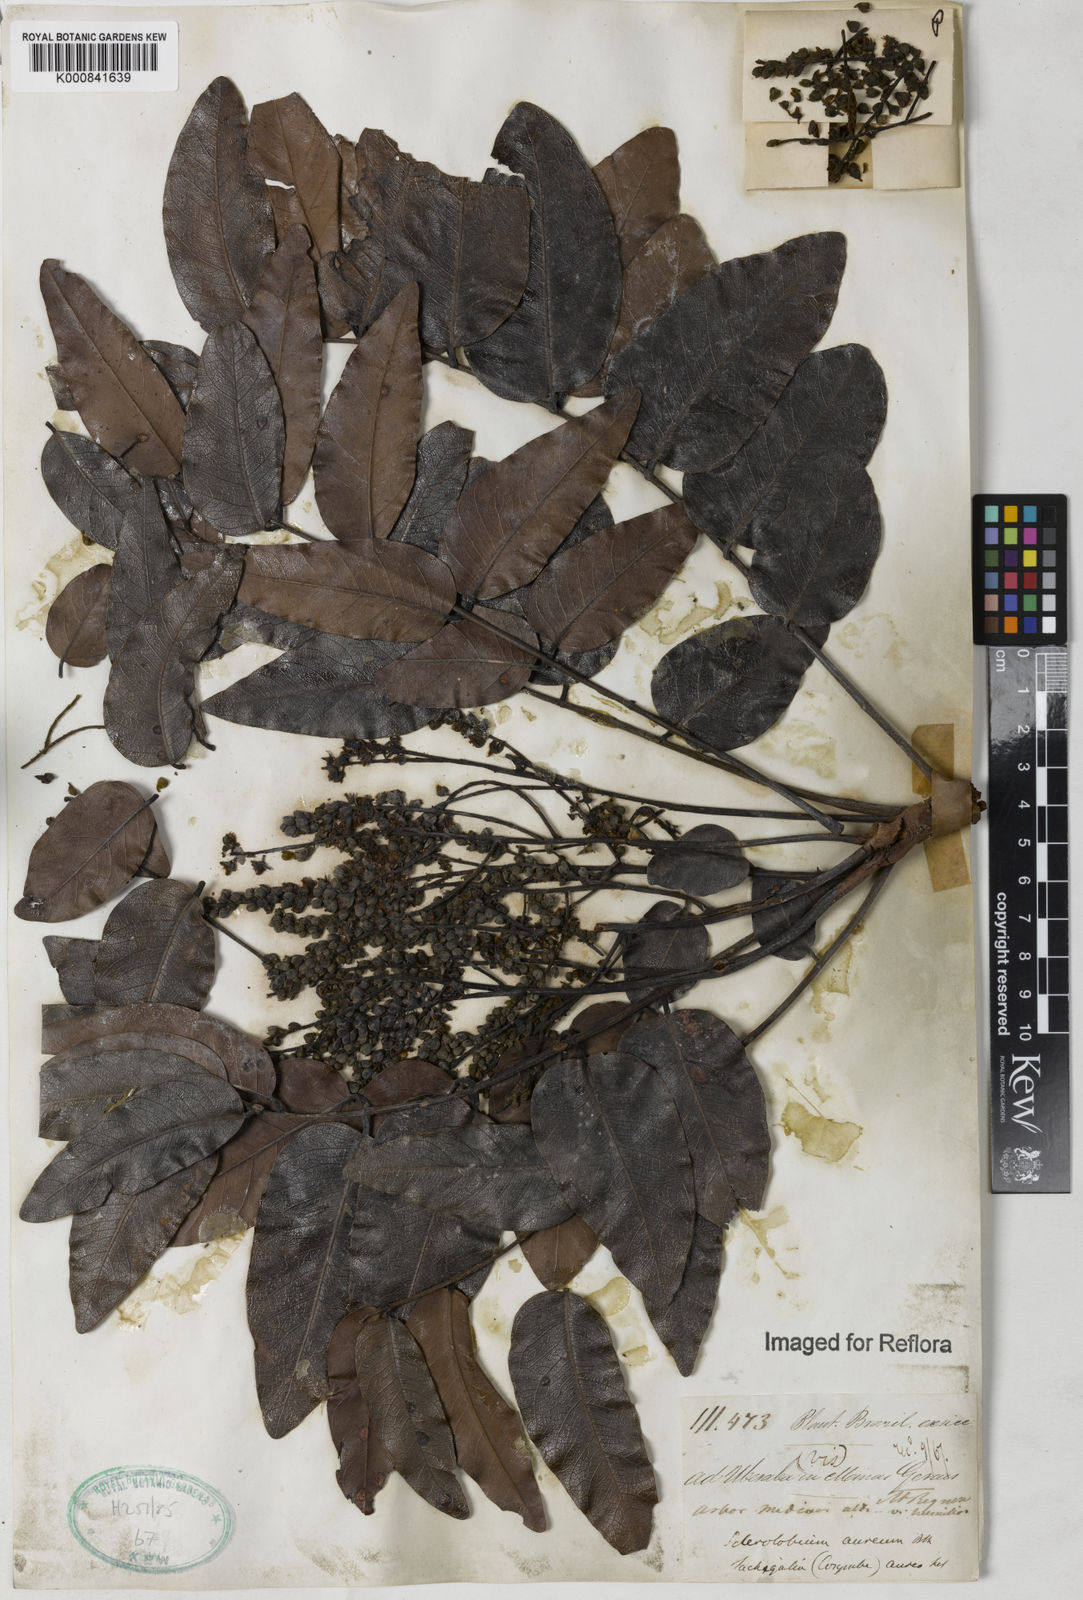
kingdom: Plantae
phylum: Tracheophyta
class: Magnoliopsida
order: Fabales
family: Fabaceae
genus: Tachigali
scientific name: Tachigali aurea
